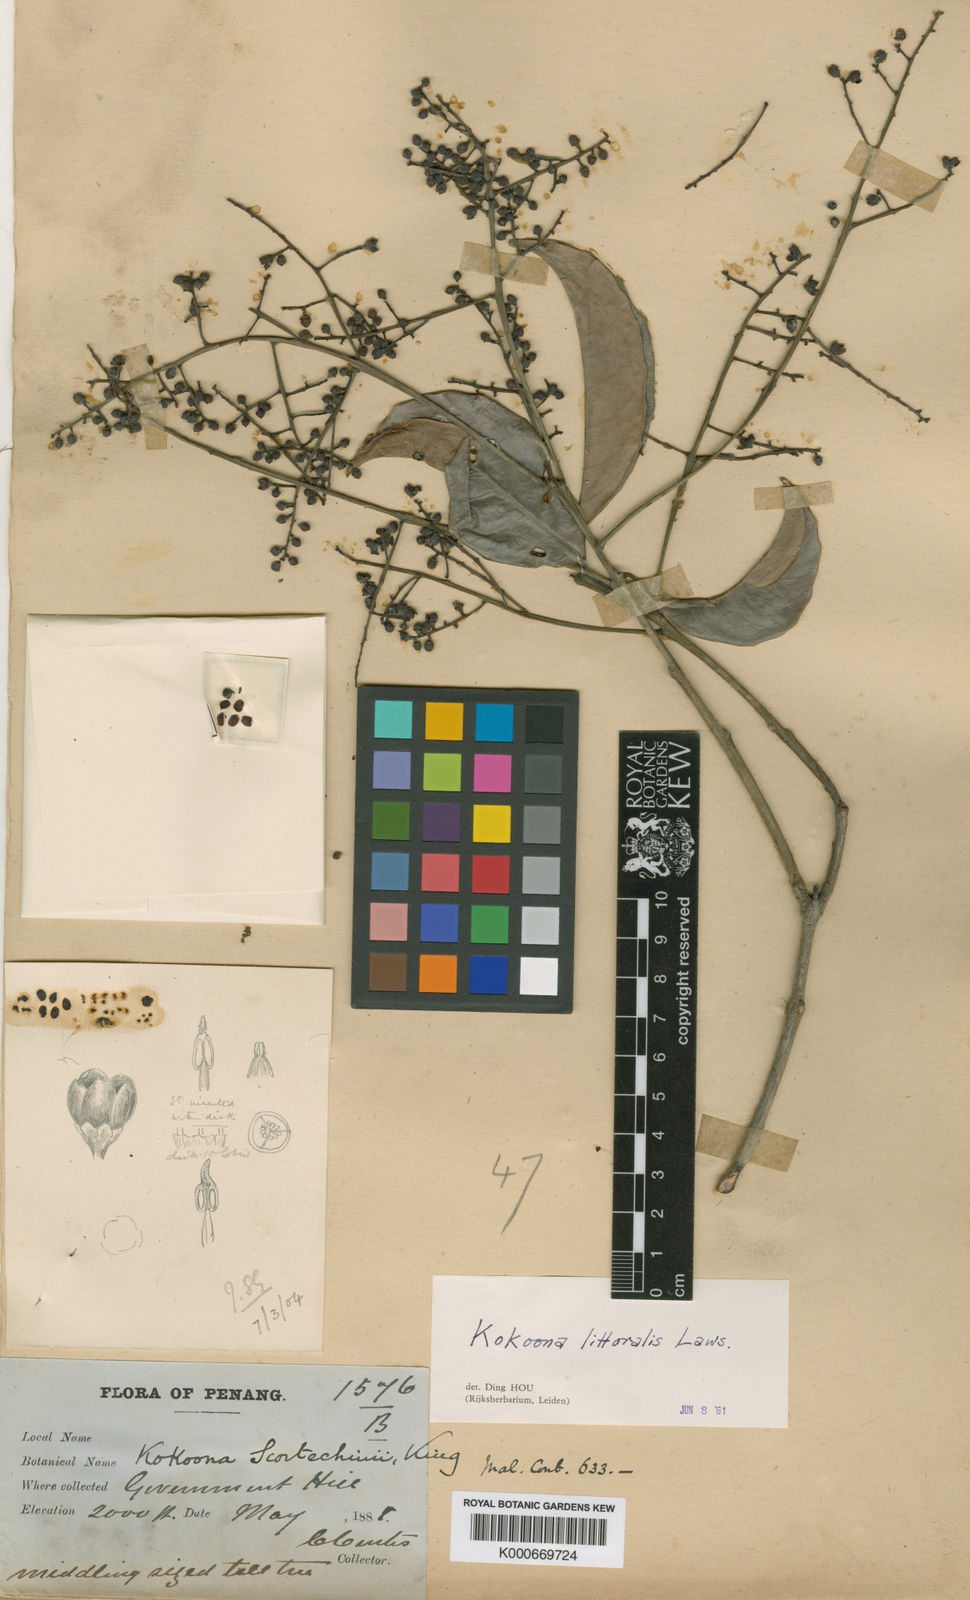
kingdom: Plantae
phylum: Tracheophyta
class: Magnoliopsida
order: Celastrales
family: Celastraceae
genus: Kokoona
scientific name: Kokoona littoralis
